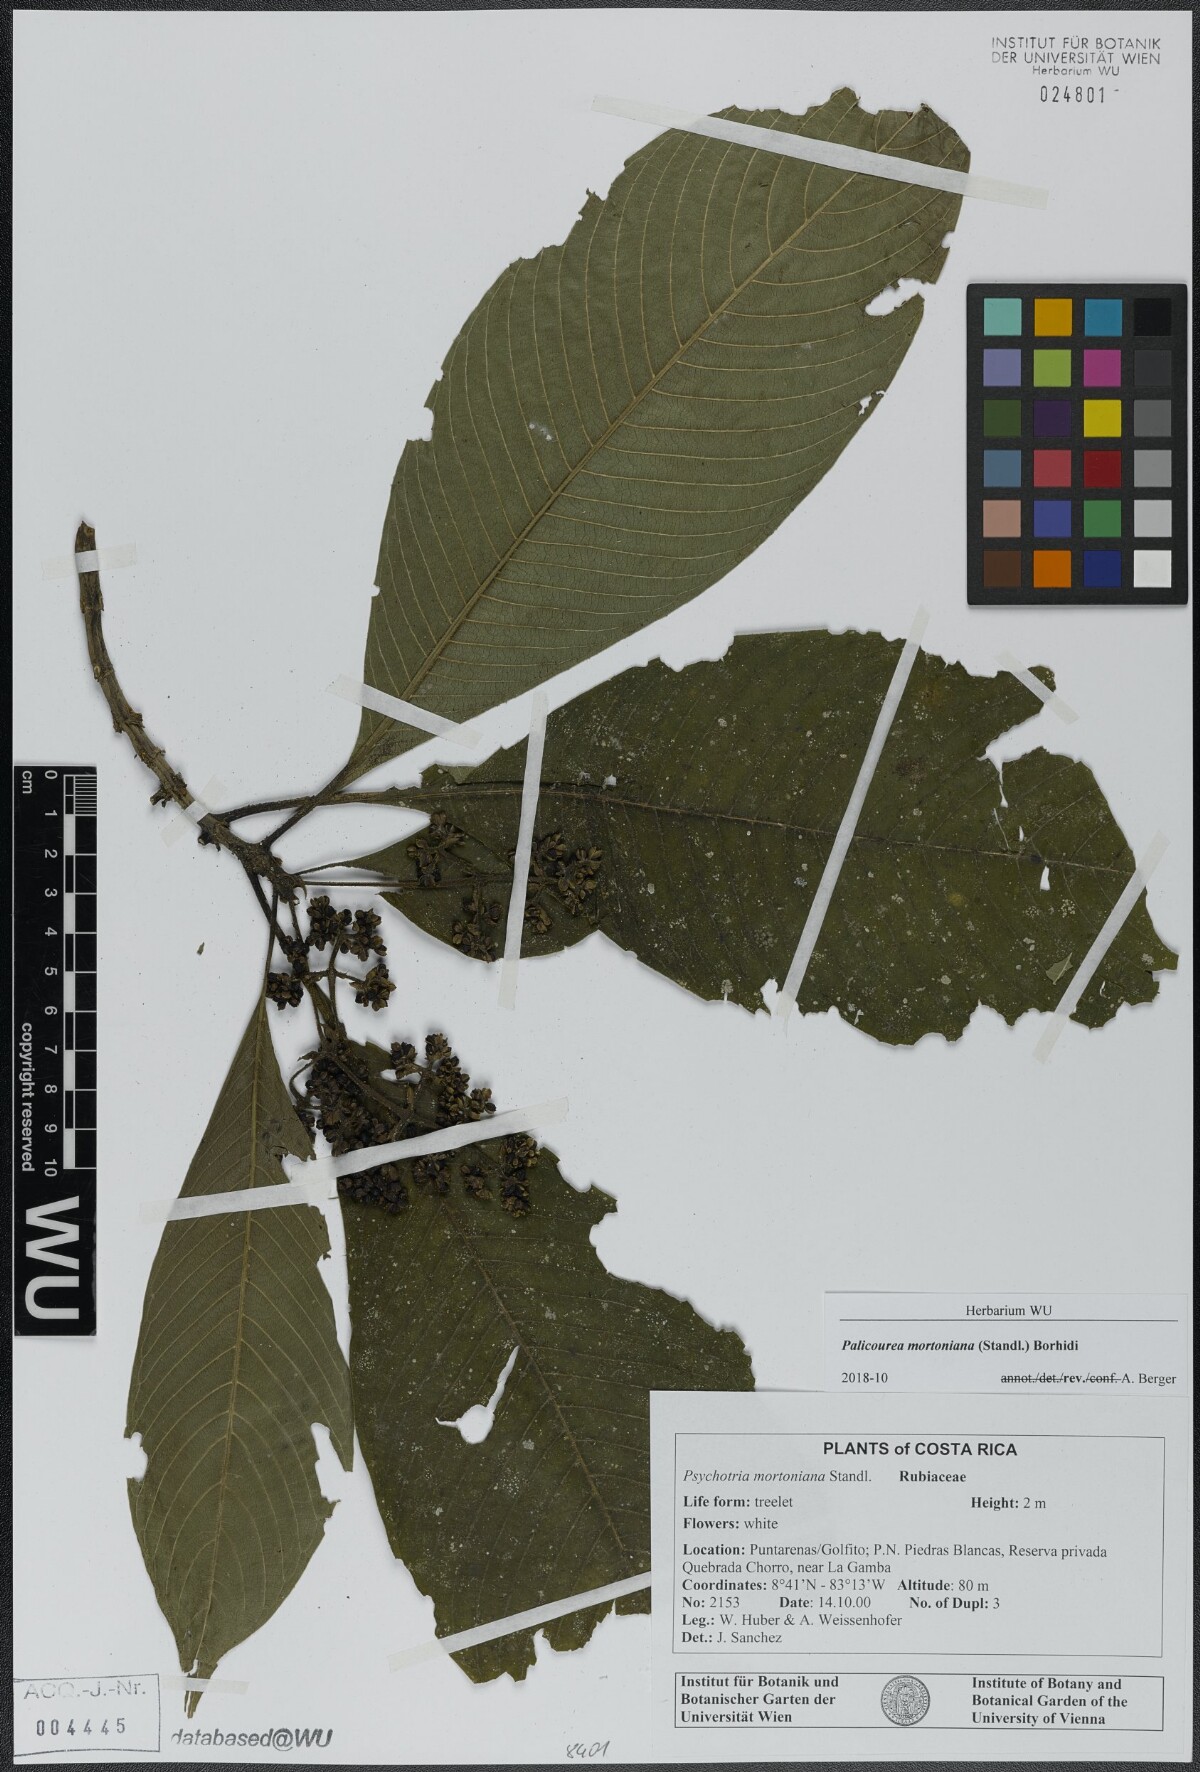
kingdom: Plantae
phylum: Tracheophyta
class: Magnoliopsida
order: Gentianales
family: Rubiaceae
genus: Palicourea
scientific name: Palicourea mortoniana
